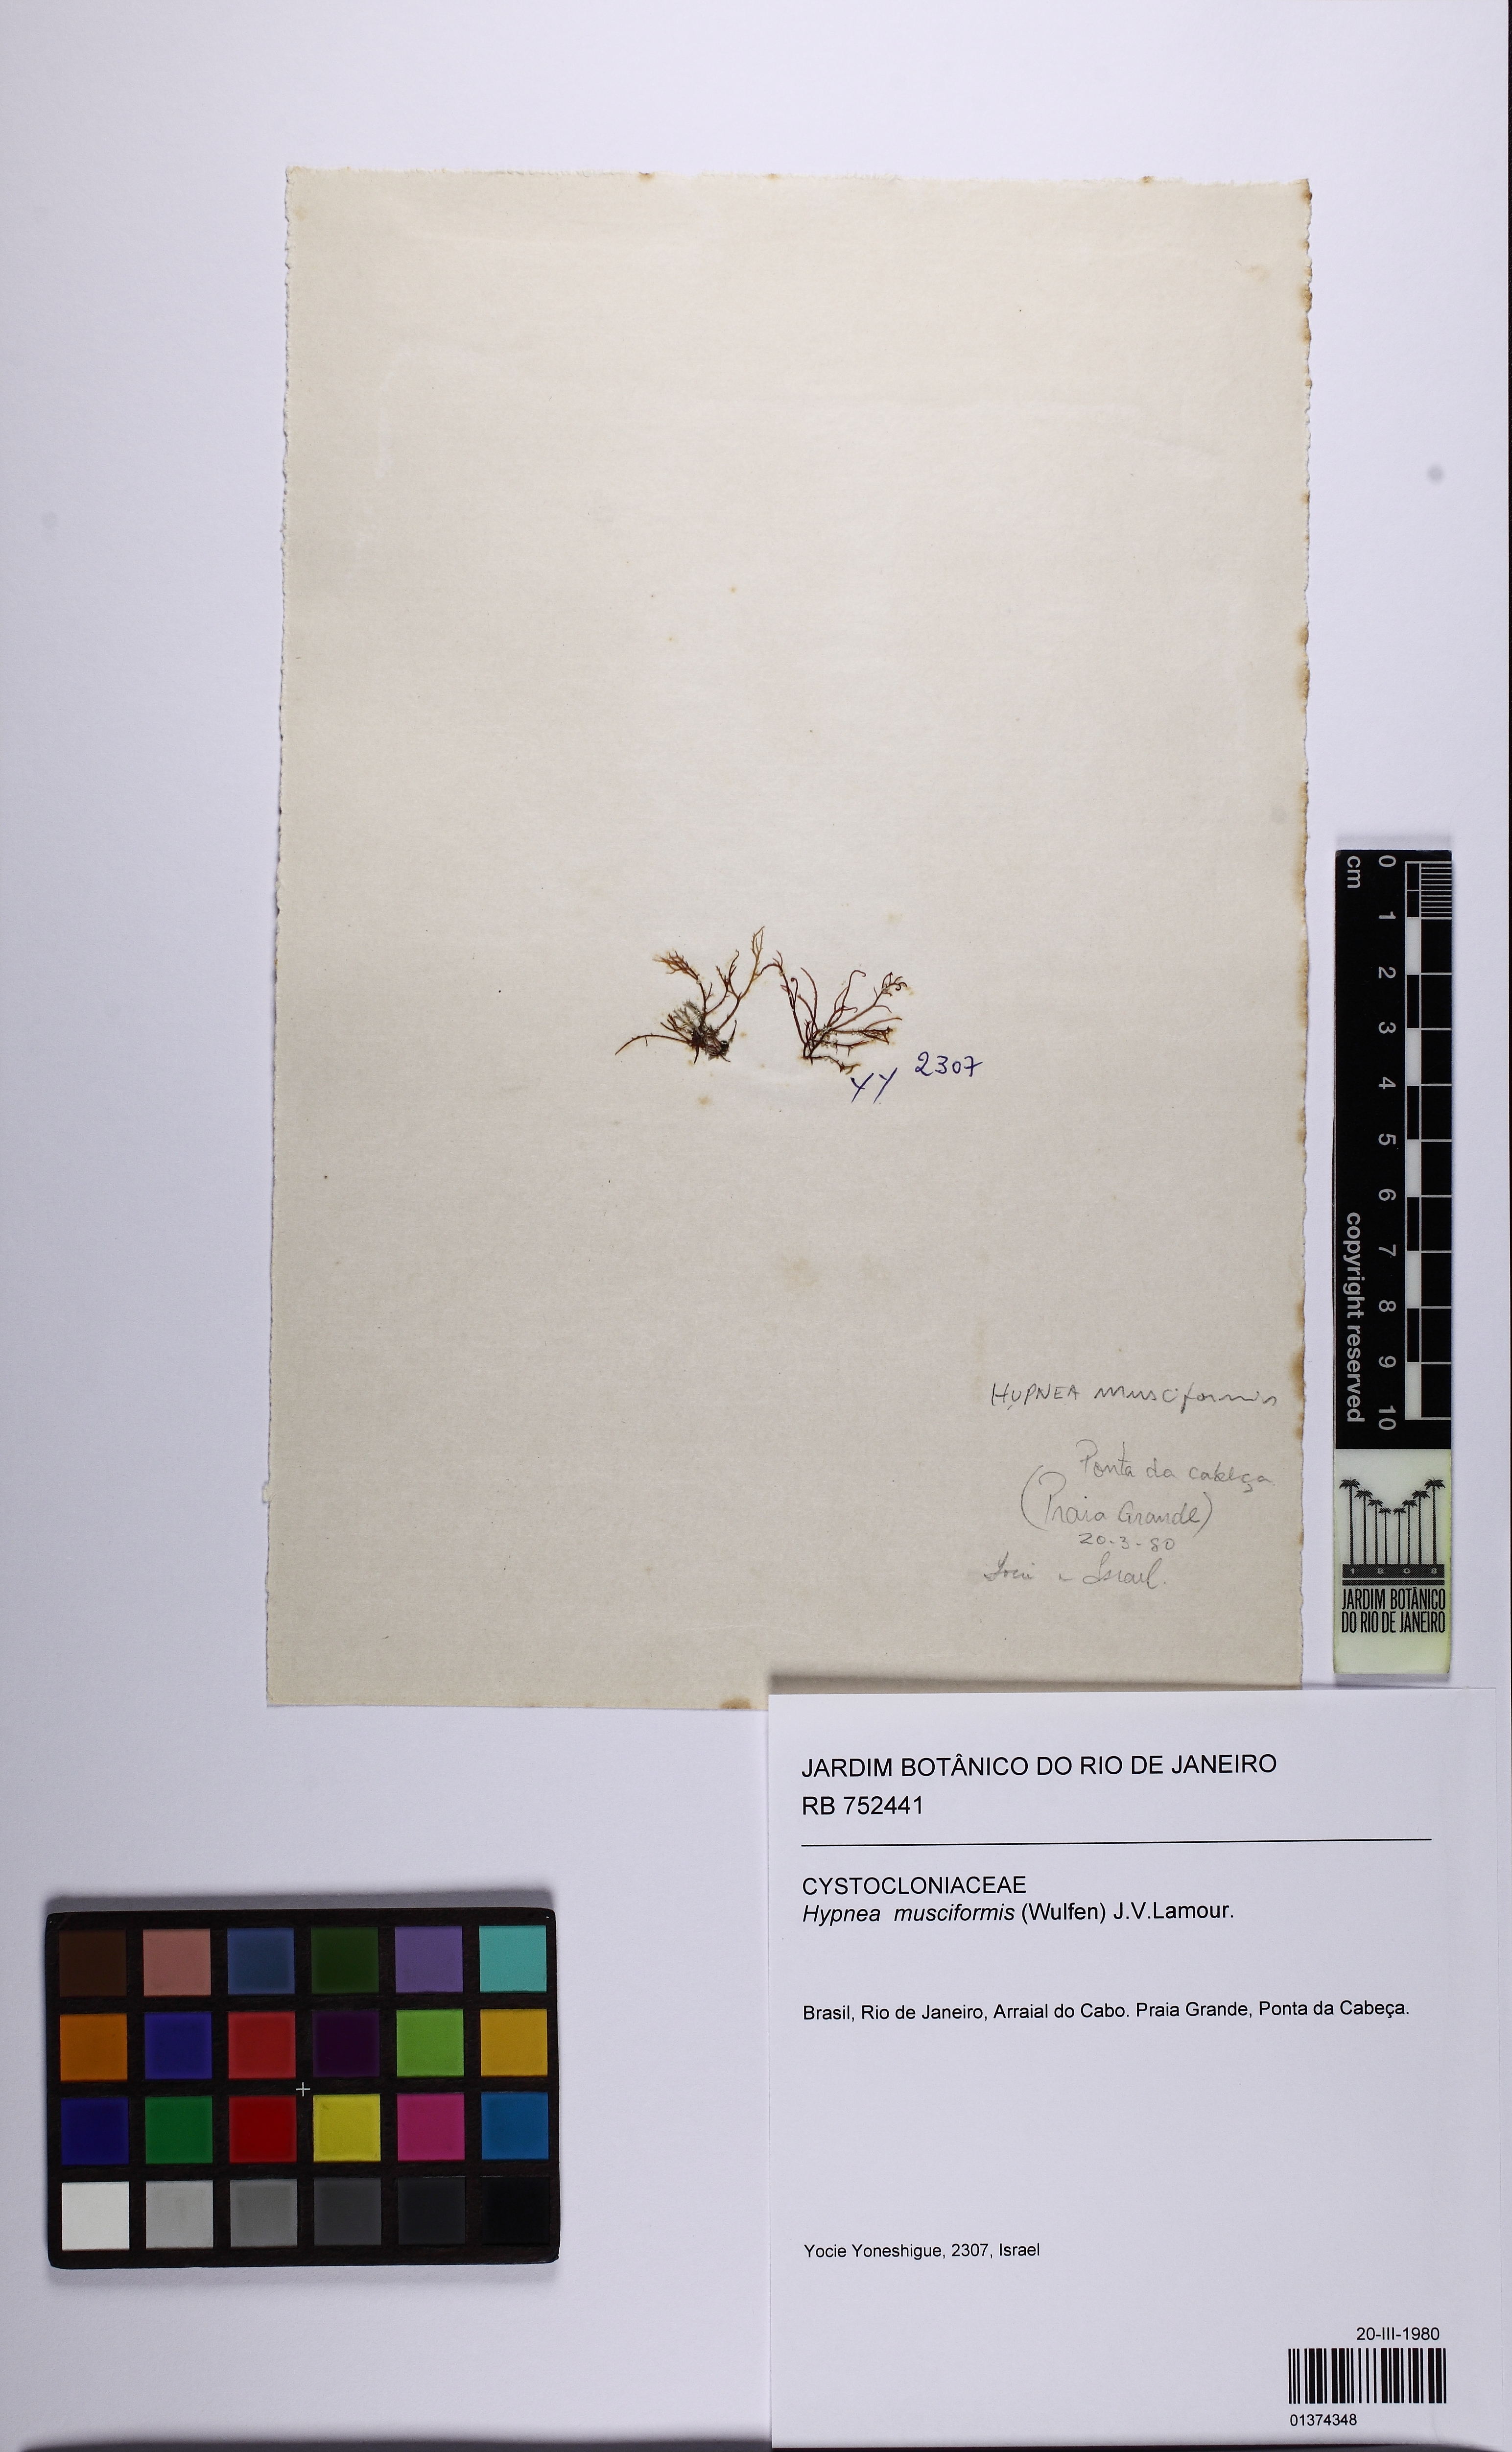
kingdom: Plantae
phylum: Rhodophyta
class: Florideophyceae
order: Gigartinales
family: Cystocloniaceae
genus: Hypnea
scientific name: Hypnea musciformis
